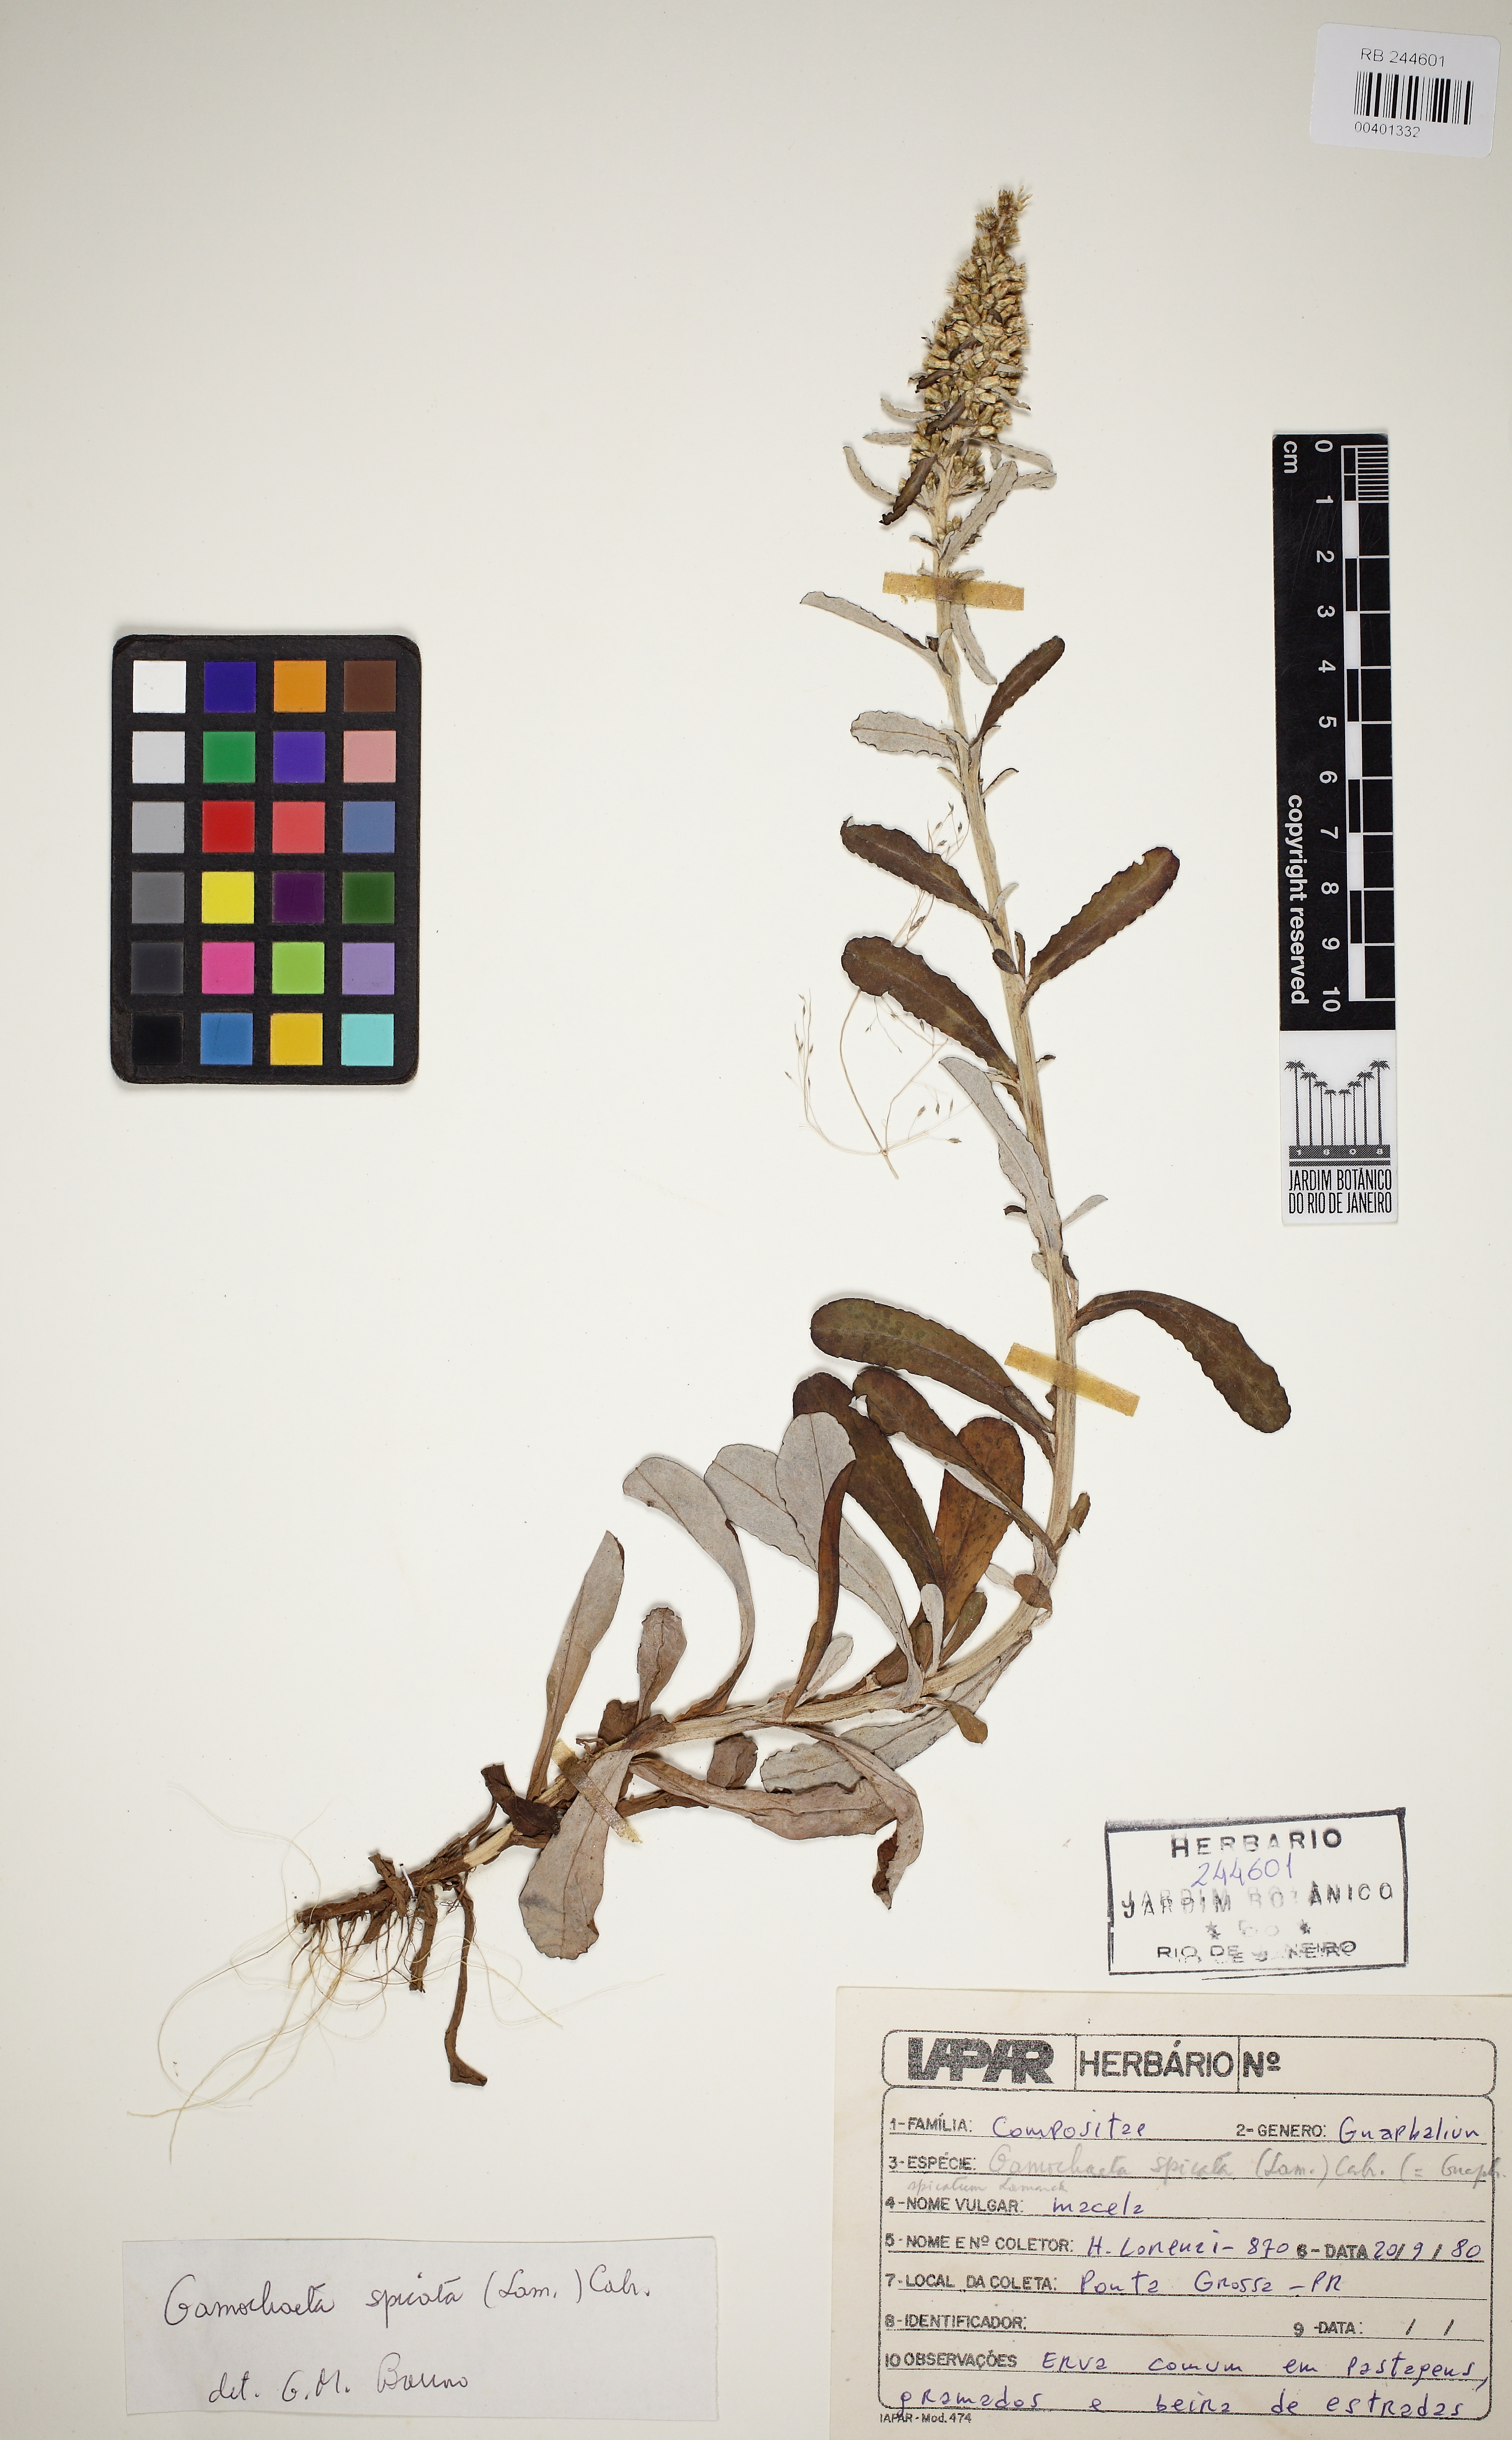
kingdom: Plantae
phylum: Tracheophyta
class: Magnoliopsida
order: Asterales
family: Asteraceae
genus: Gamochaeta
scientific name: Gamochaeta americana
